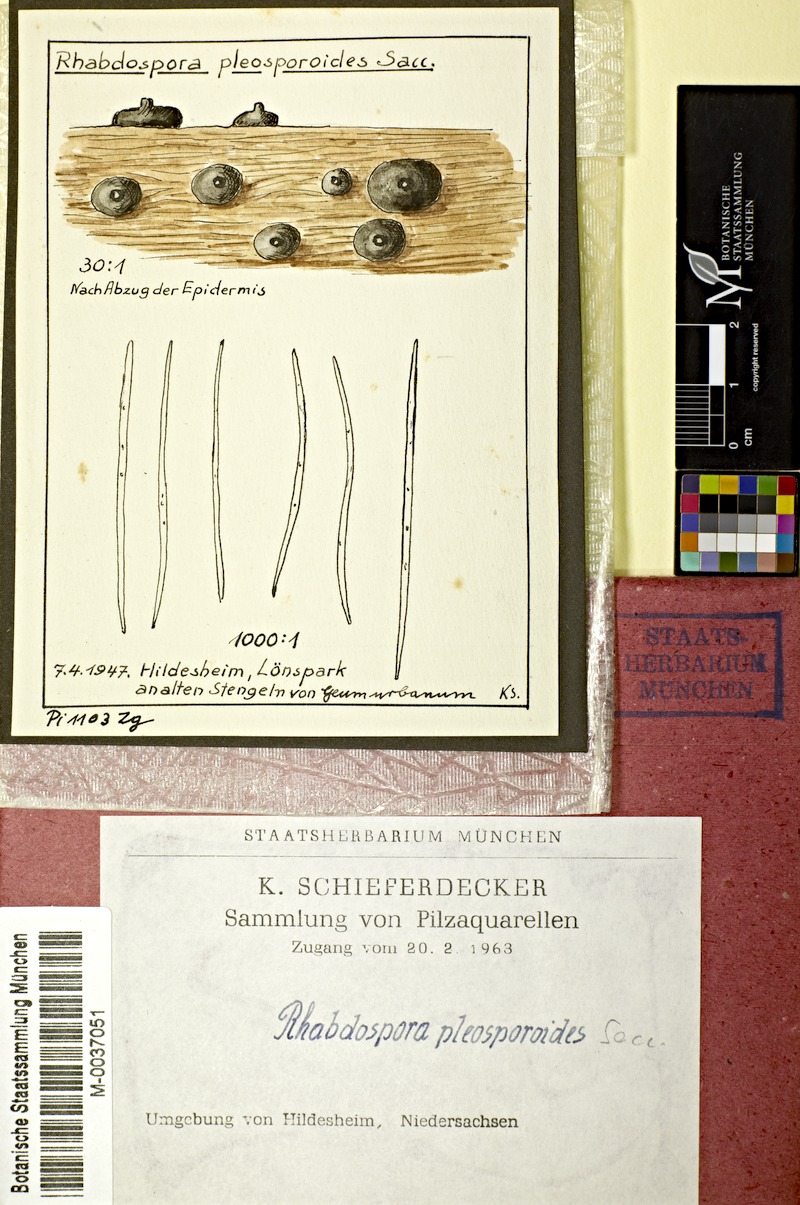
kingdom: Fungi
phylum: Ascomycota
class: Dothideomycetes
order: Mycosphaerellales
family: Mycosphaerellaceae
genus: Rhabdospora
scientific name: Rhabdospora pleosporoides
